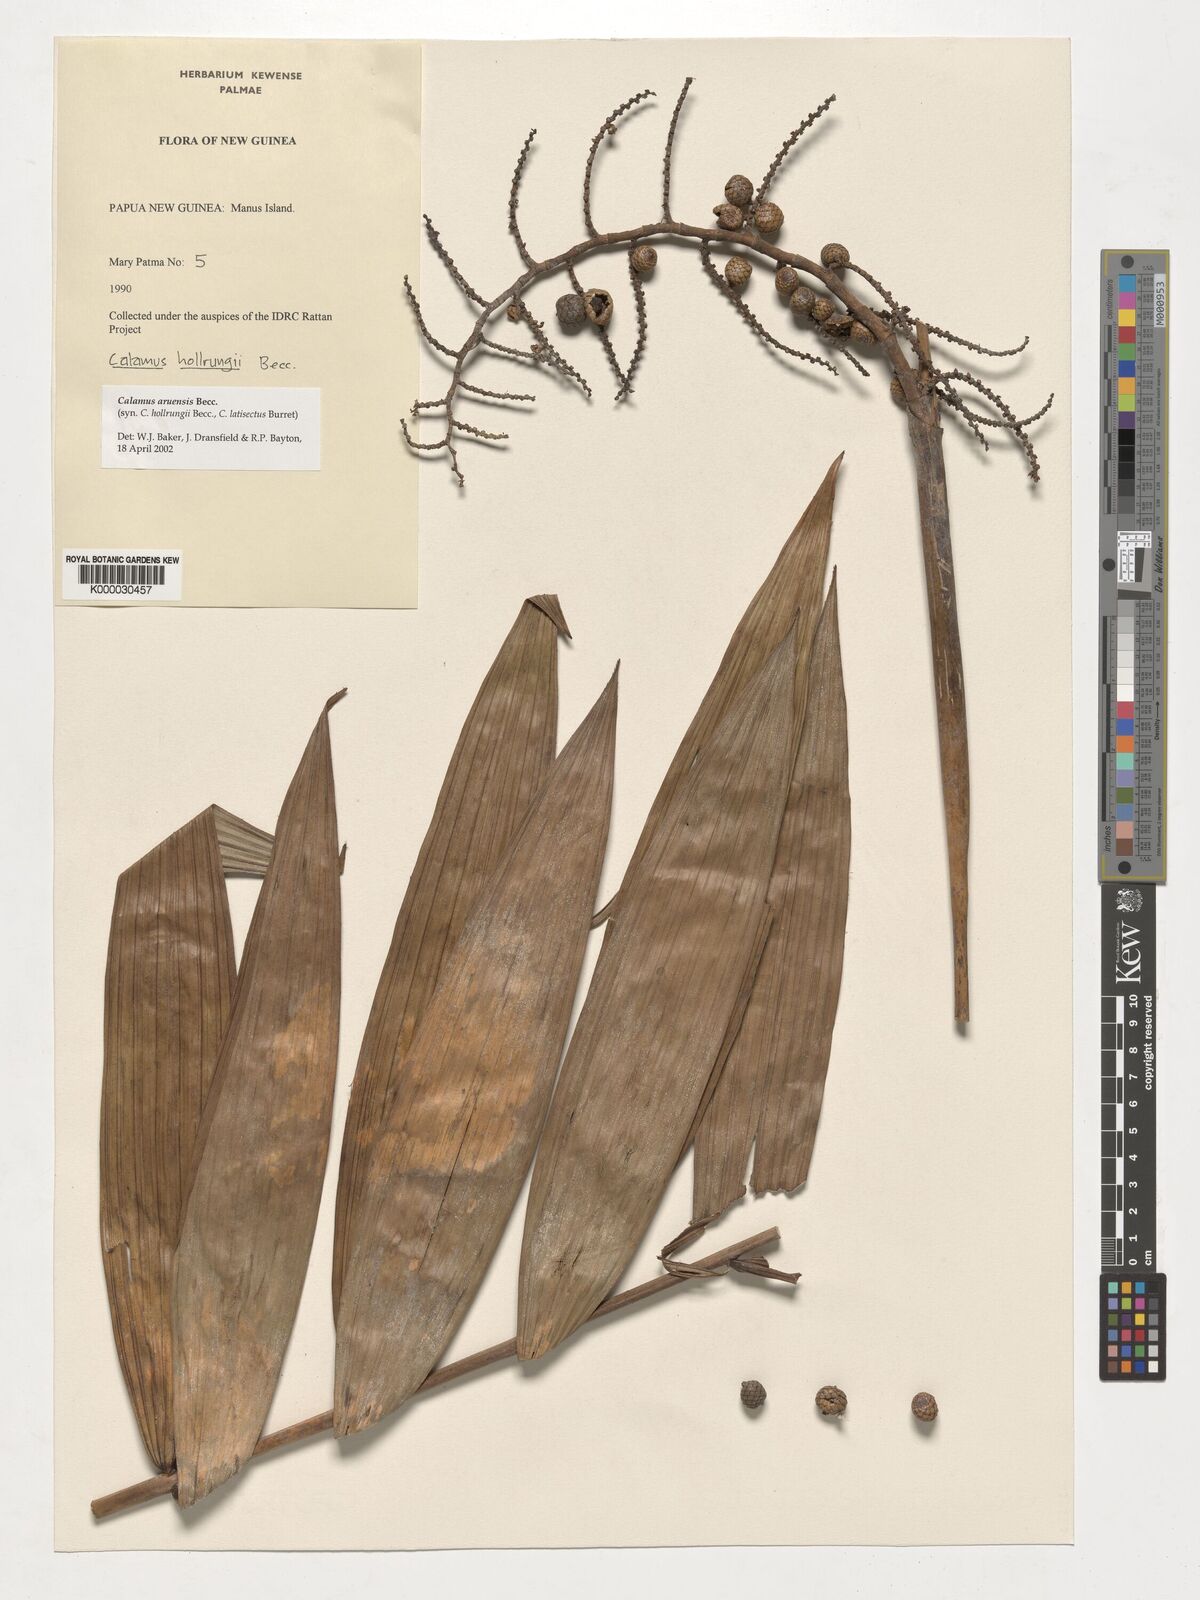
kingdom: Plantae
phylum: Tracheophyta
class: Liliopsida
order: Arecales
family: Arecaceae
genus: Calamus
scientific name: Calamus aruensis
